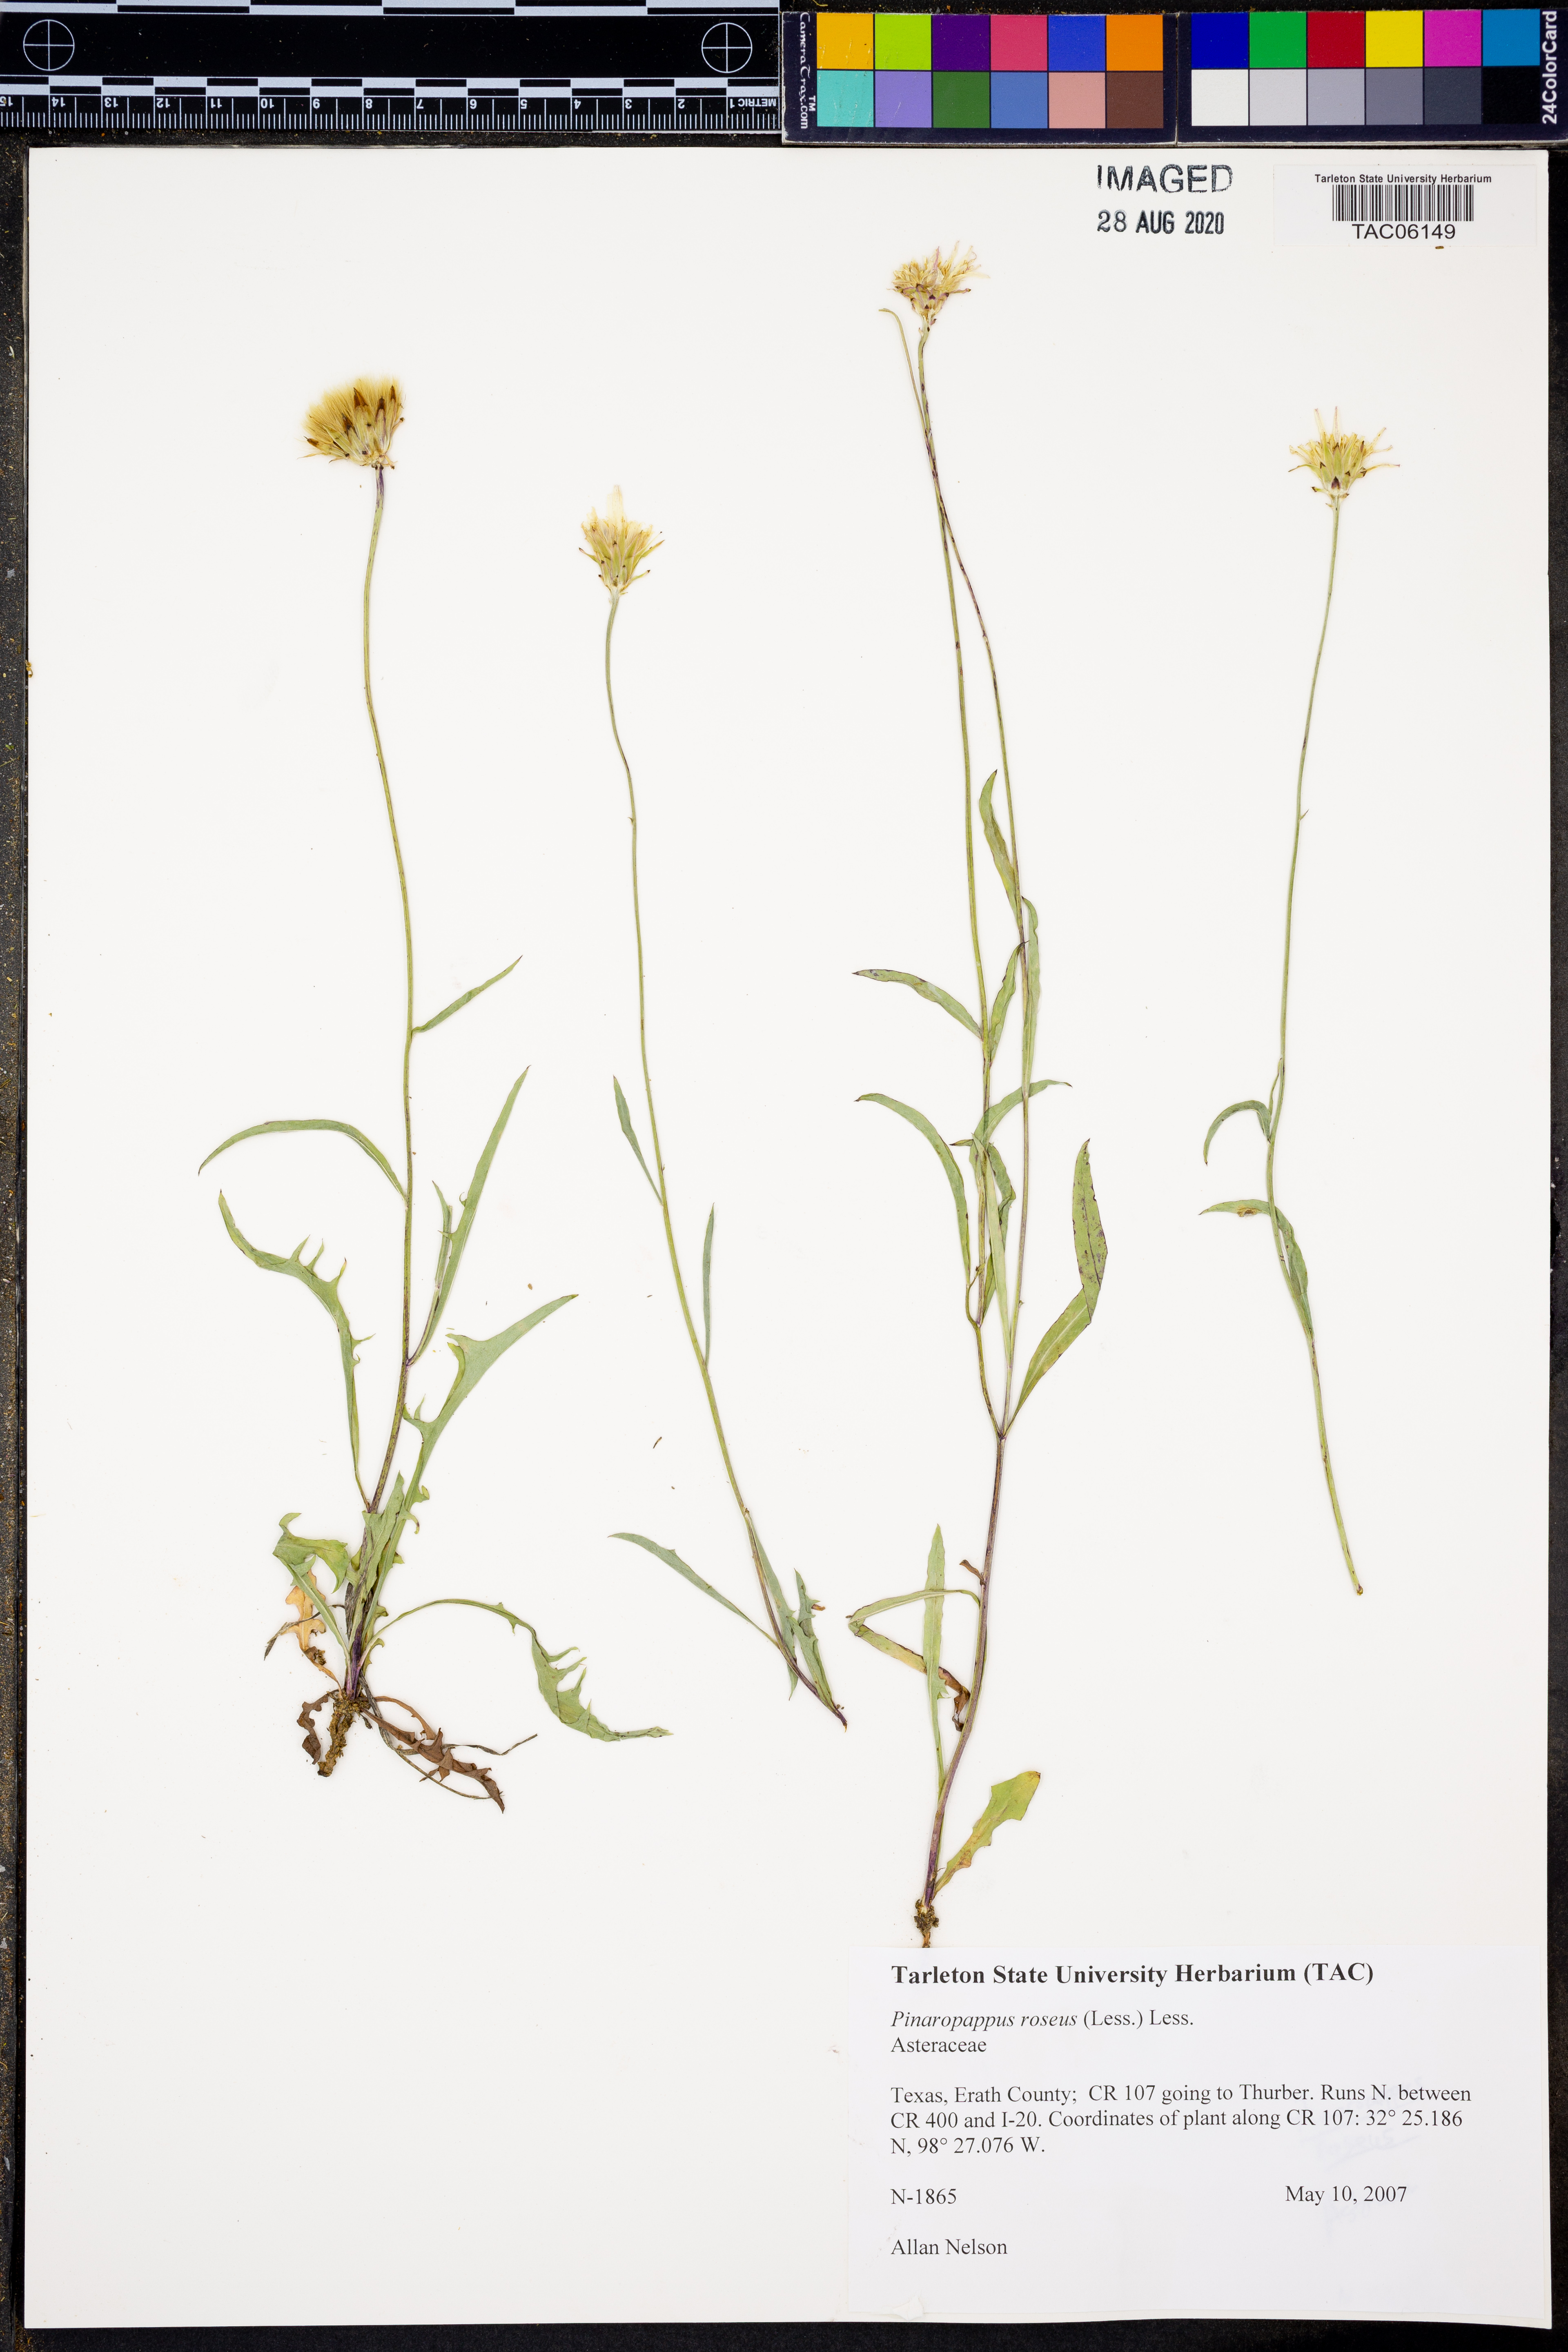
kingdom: Plantae
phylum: Tracheophyta
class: Magnoliopsida
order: Asterales
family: Asteraceae
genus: Pinaropappus
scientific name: Pinaropappus roseus
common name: Rock-lettuce
